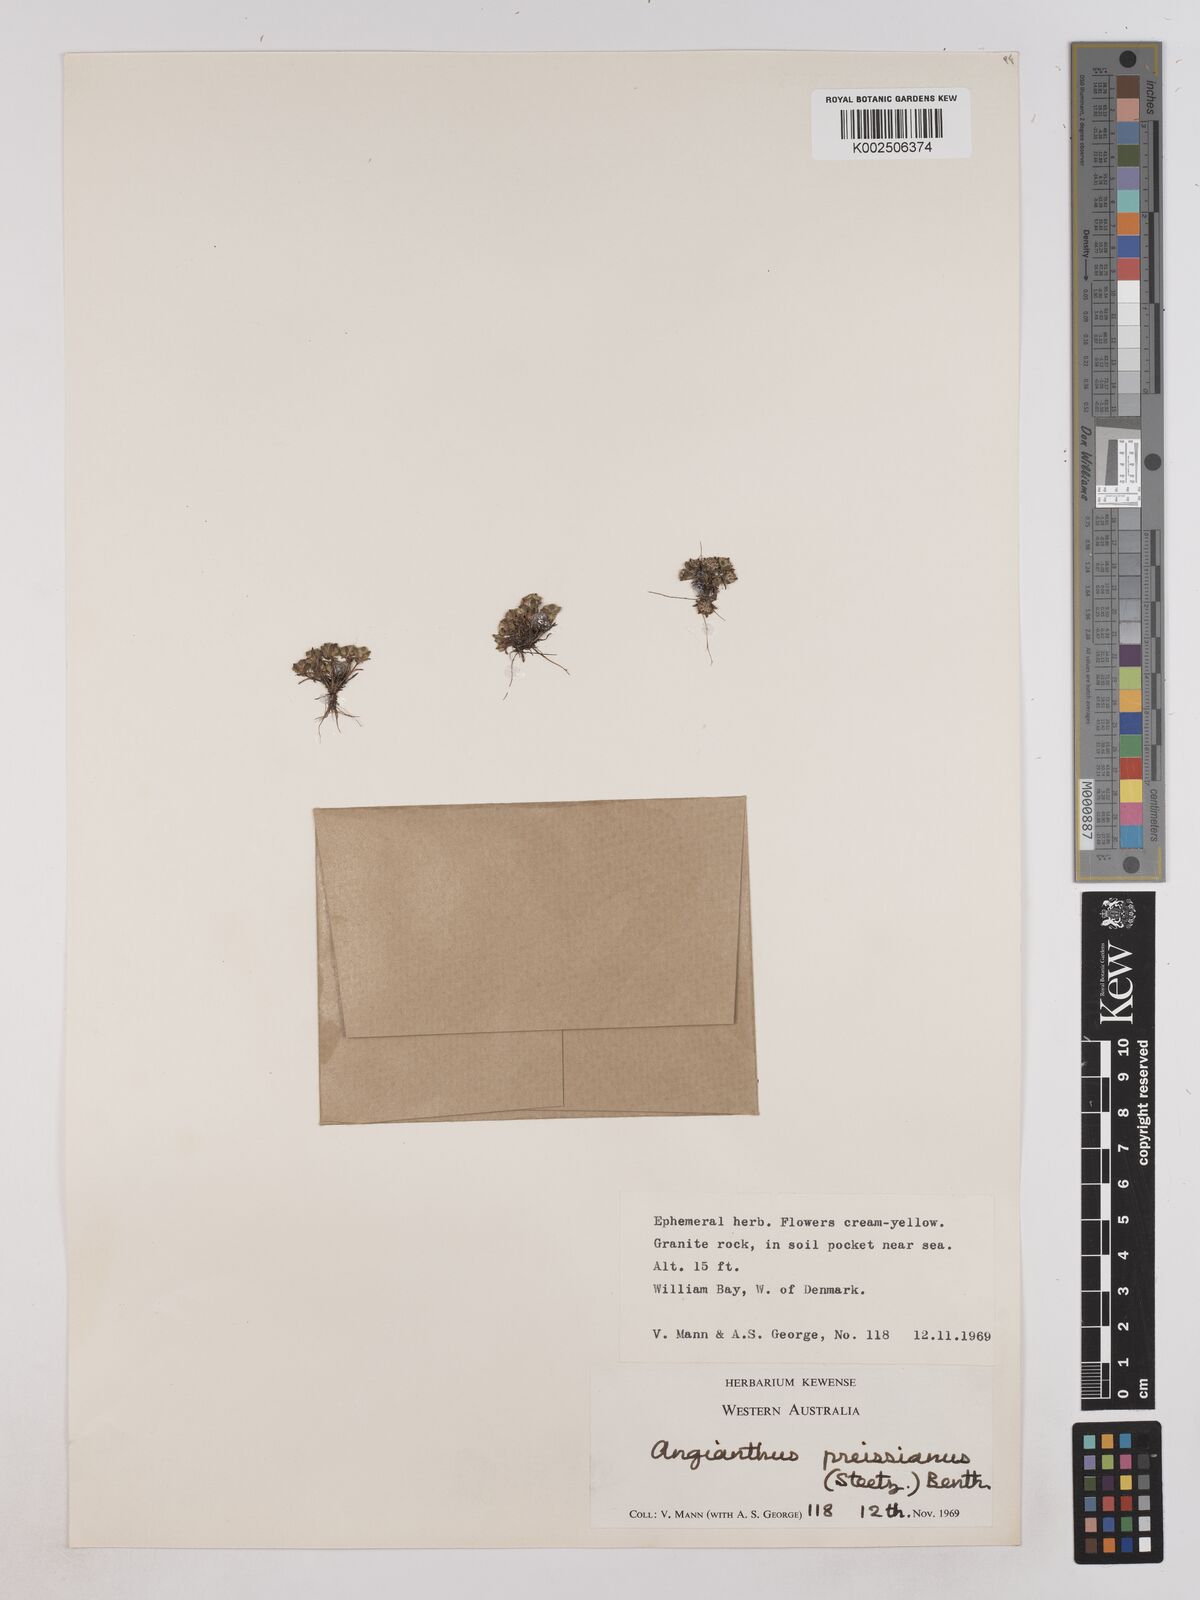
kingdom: Plantae
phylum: Tracheophyta
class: Magnoliopsida
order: Asterales
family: Asteraceae
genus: Angianthus
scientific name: Angianthus preissianus
